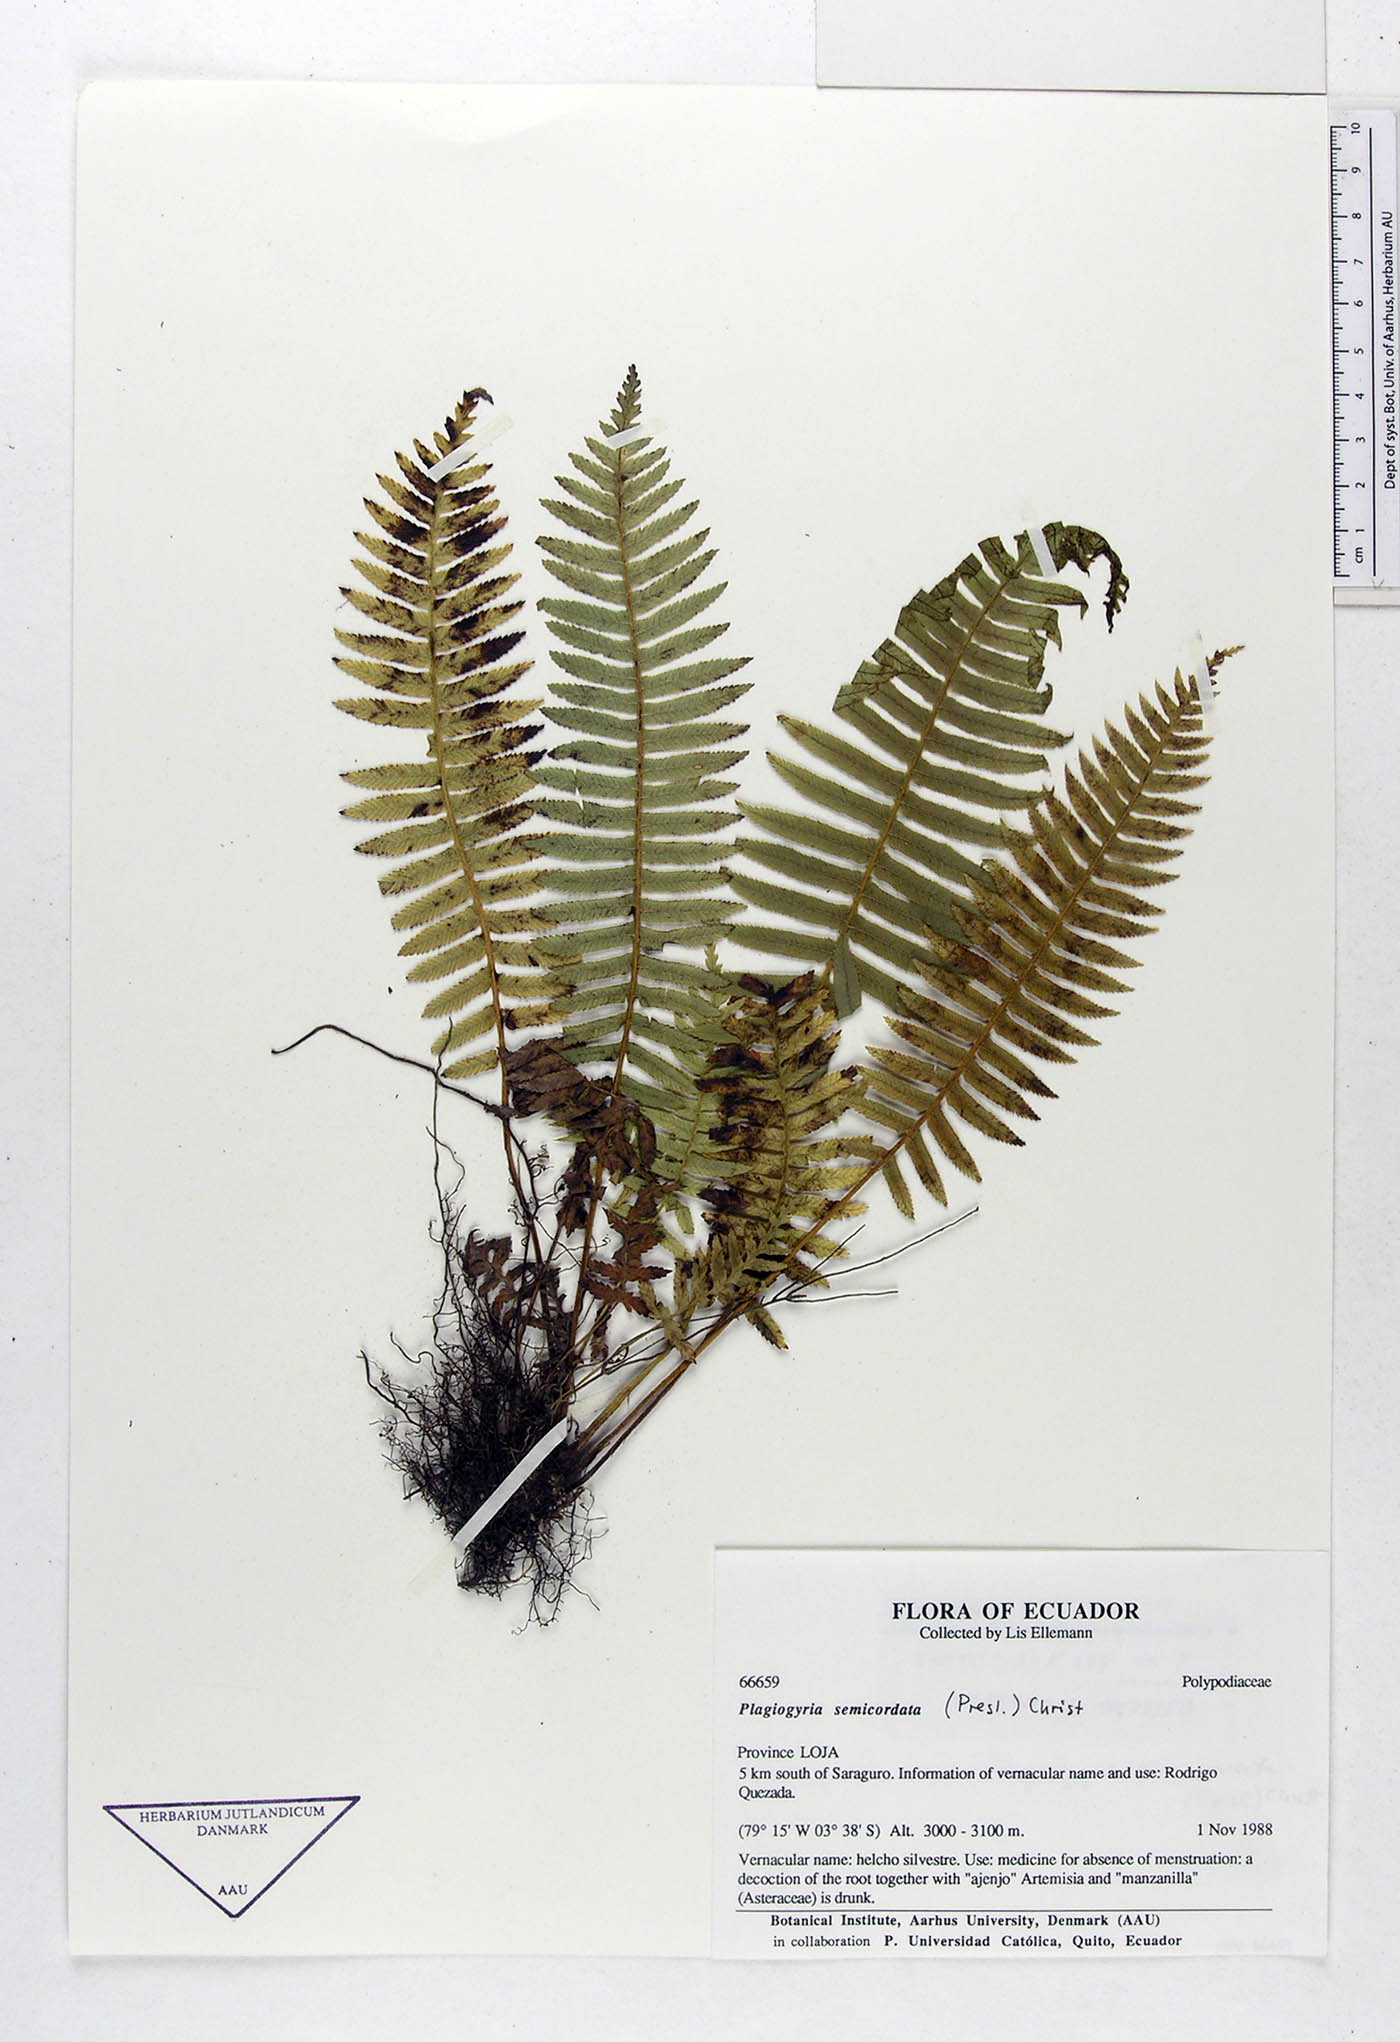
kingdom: Plantae
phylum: Tracheophyta
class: Polypodiopsida
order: Cyatheales
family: Plagiogyriaceae
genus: Plagiogyria
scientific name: Plagiogyria pectinata
